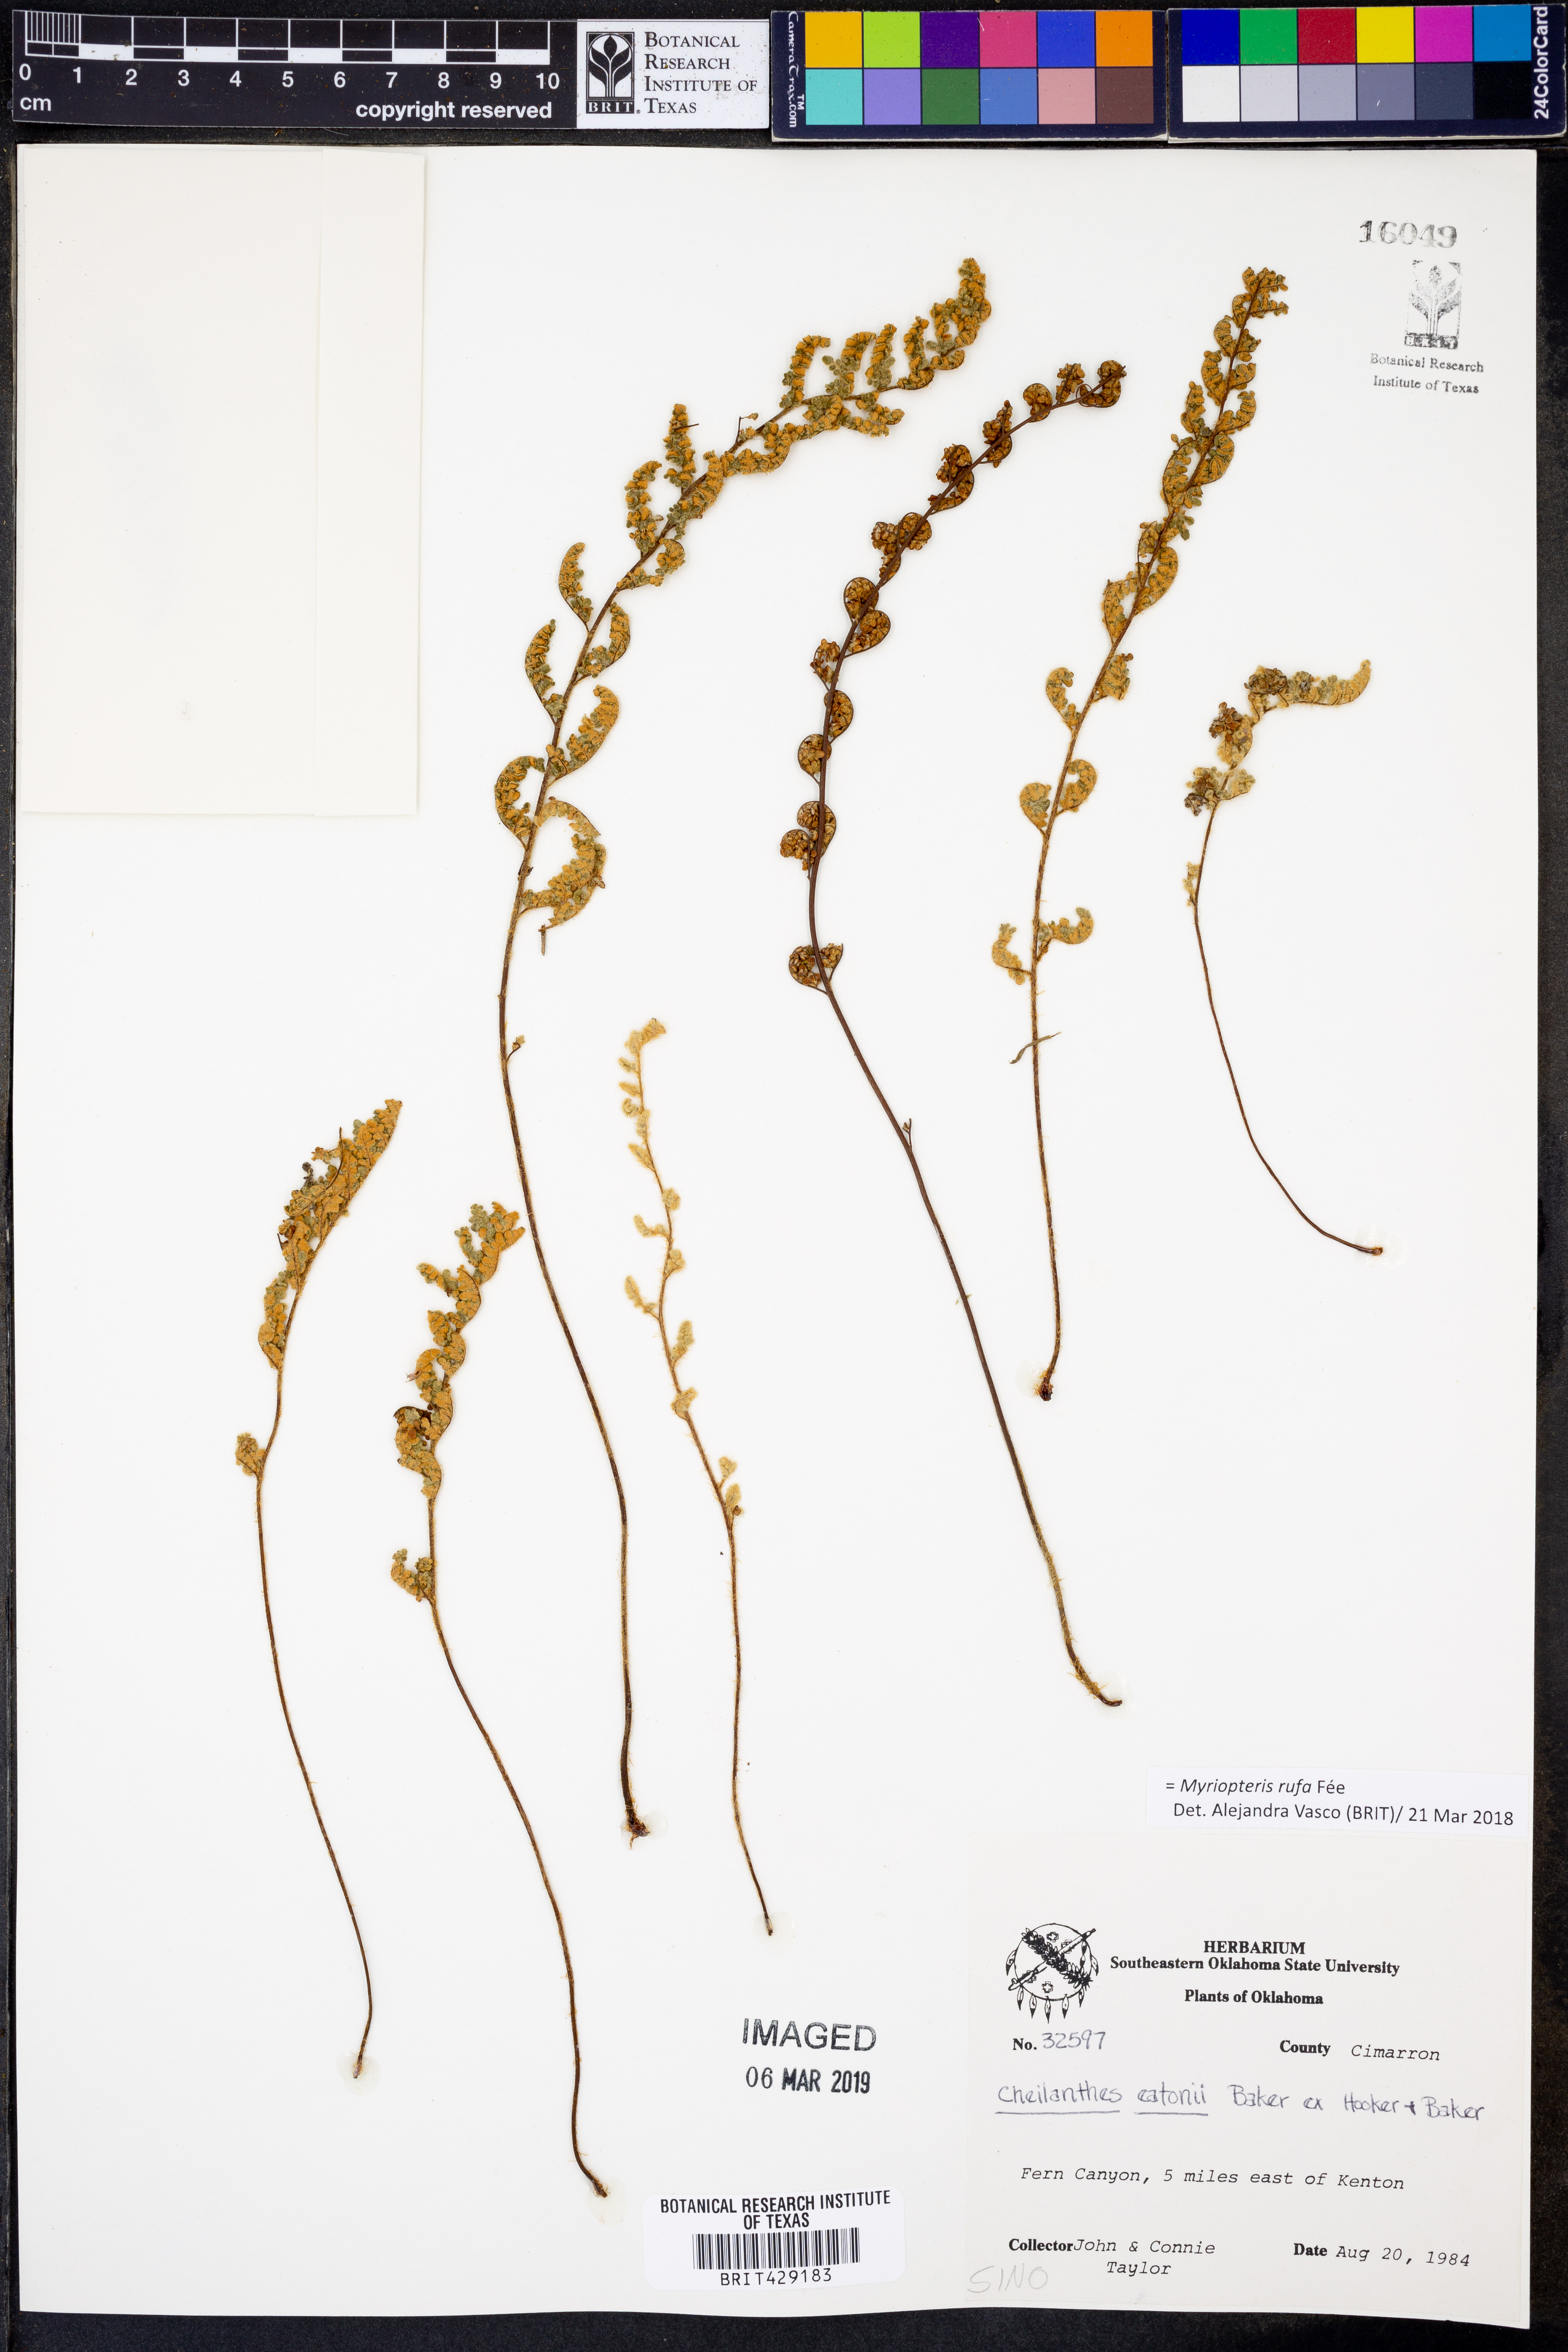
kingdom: Plantae
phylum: Tracheophyta
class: Polypodiopsida
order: Polypodiales
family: Pteridaceae
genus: Myriopteris
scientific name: Myriopteris rufa
